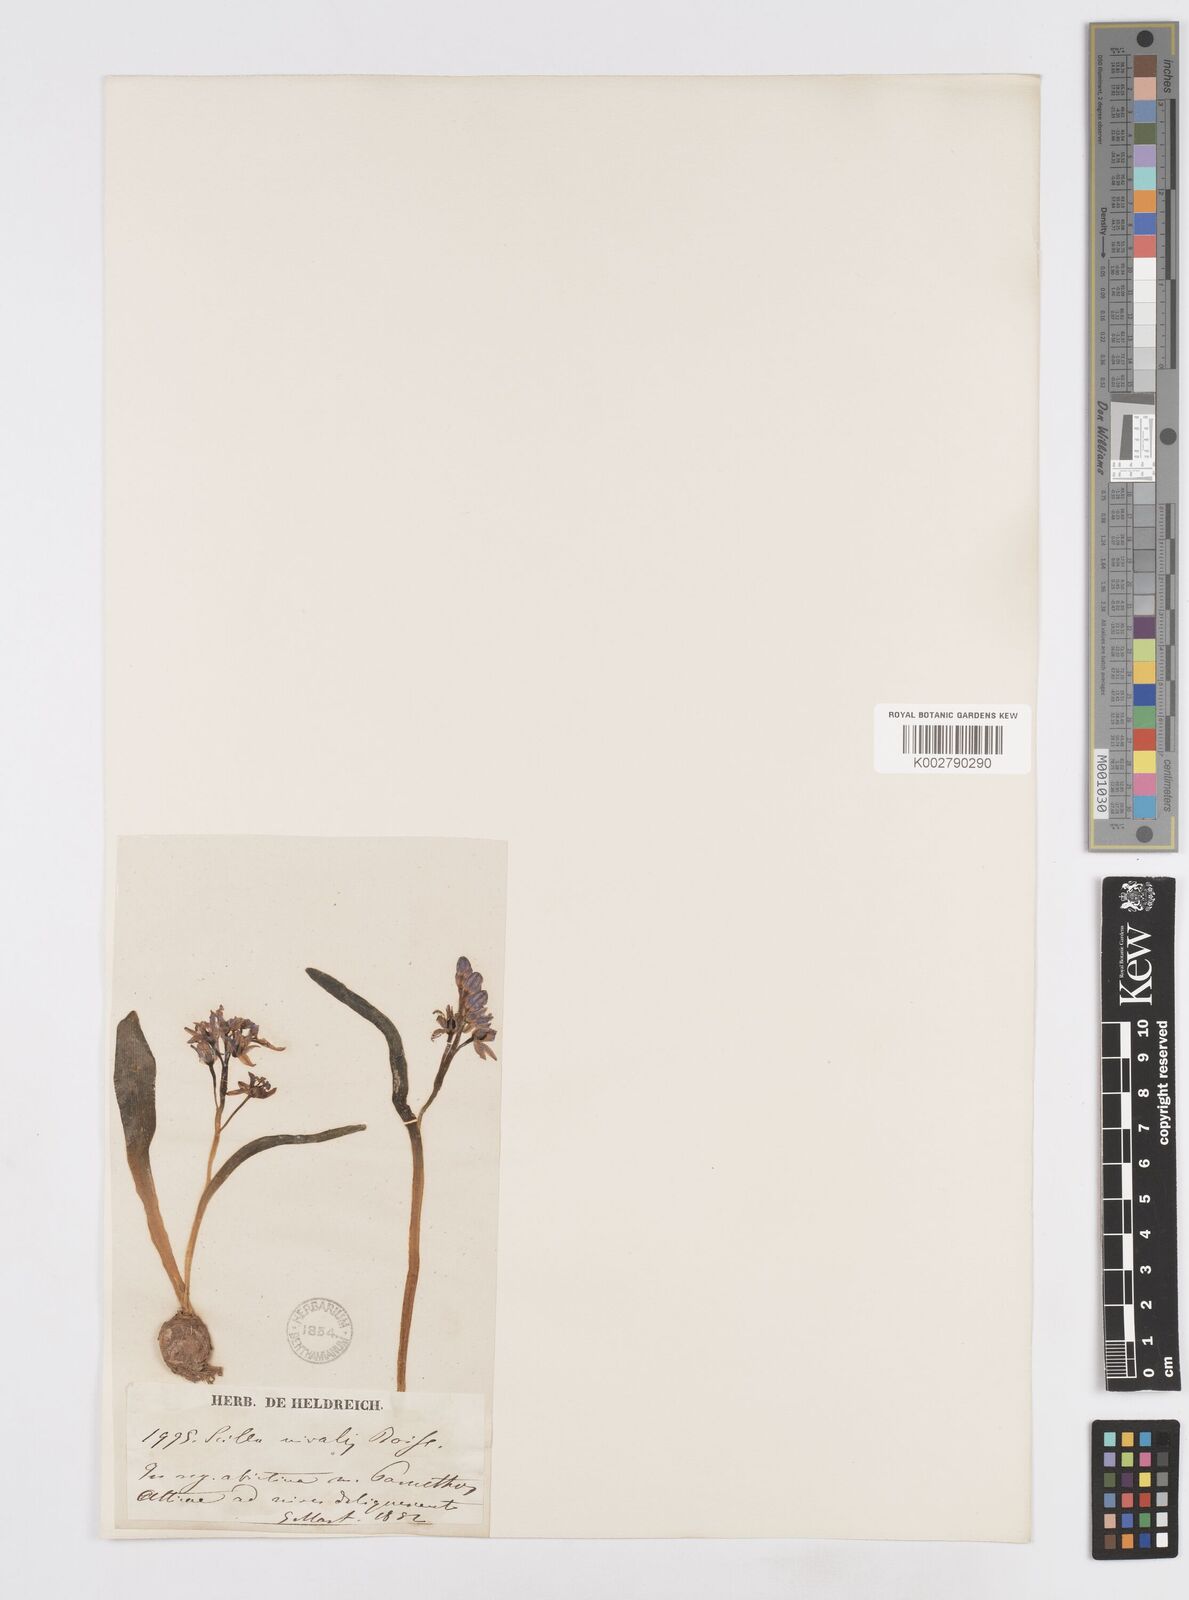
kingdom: Plantae
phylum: Tracheophyta
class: Liliopsida
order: Asparagales
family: Asparagaceae
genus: Scilla
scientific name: Scilla nivalis
